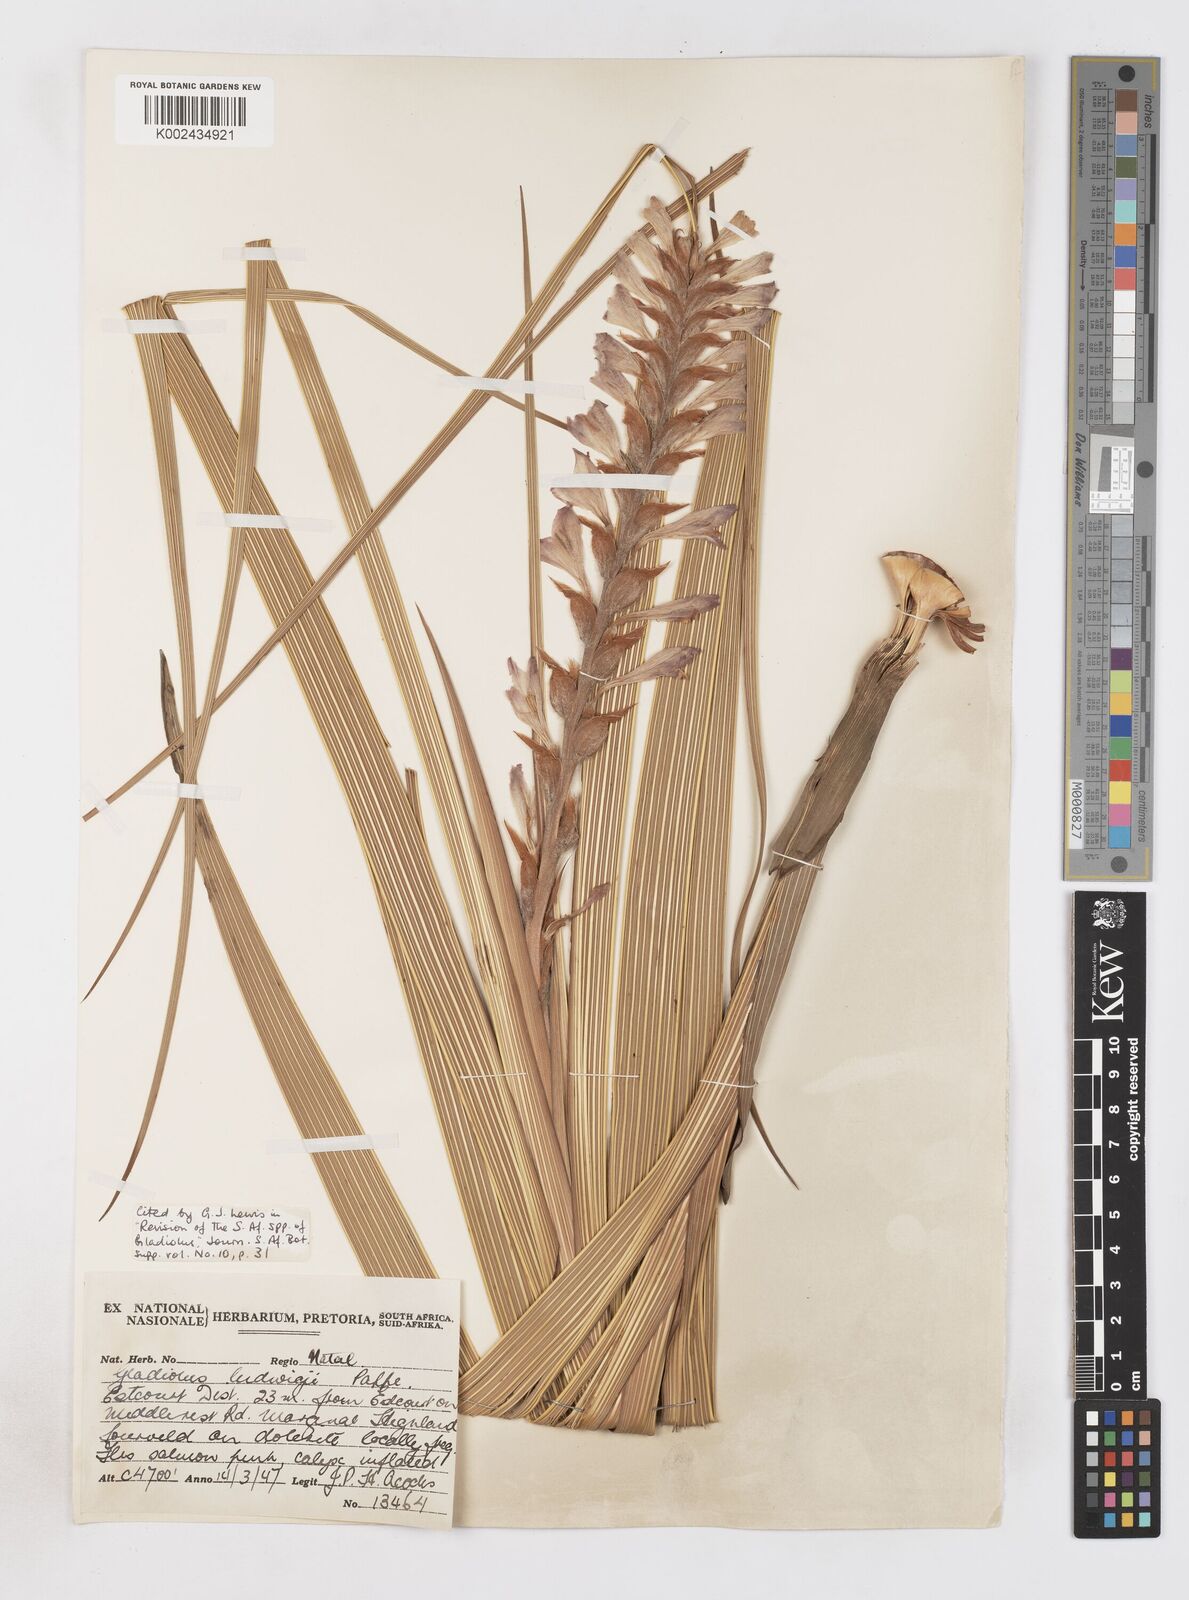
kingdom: Plantae
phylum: Tracheophyta
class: Liliopsida
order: Asparagales
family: Iridaceae
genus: Gladiolus
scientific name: Gladiolus sericeovillosus
